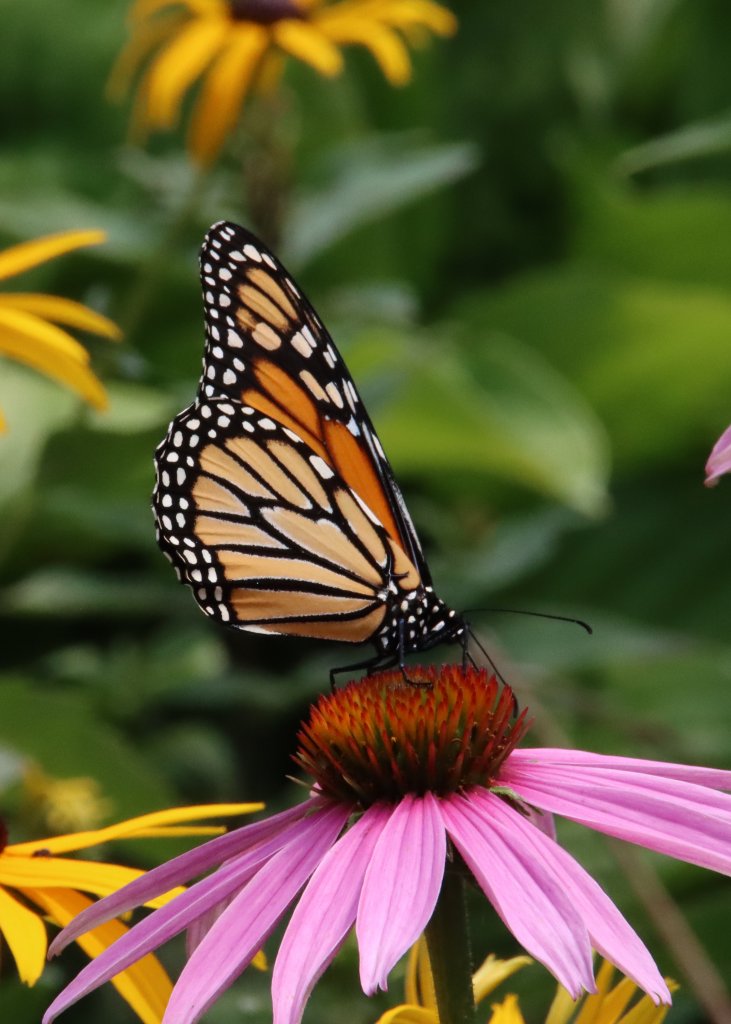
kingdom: Animalia
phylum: Arthropoda
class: Insecta
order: Lepidoptera
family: Nymphalidae
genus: Danaus
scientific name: Danaus plexippus
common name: Monarch
